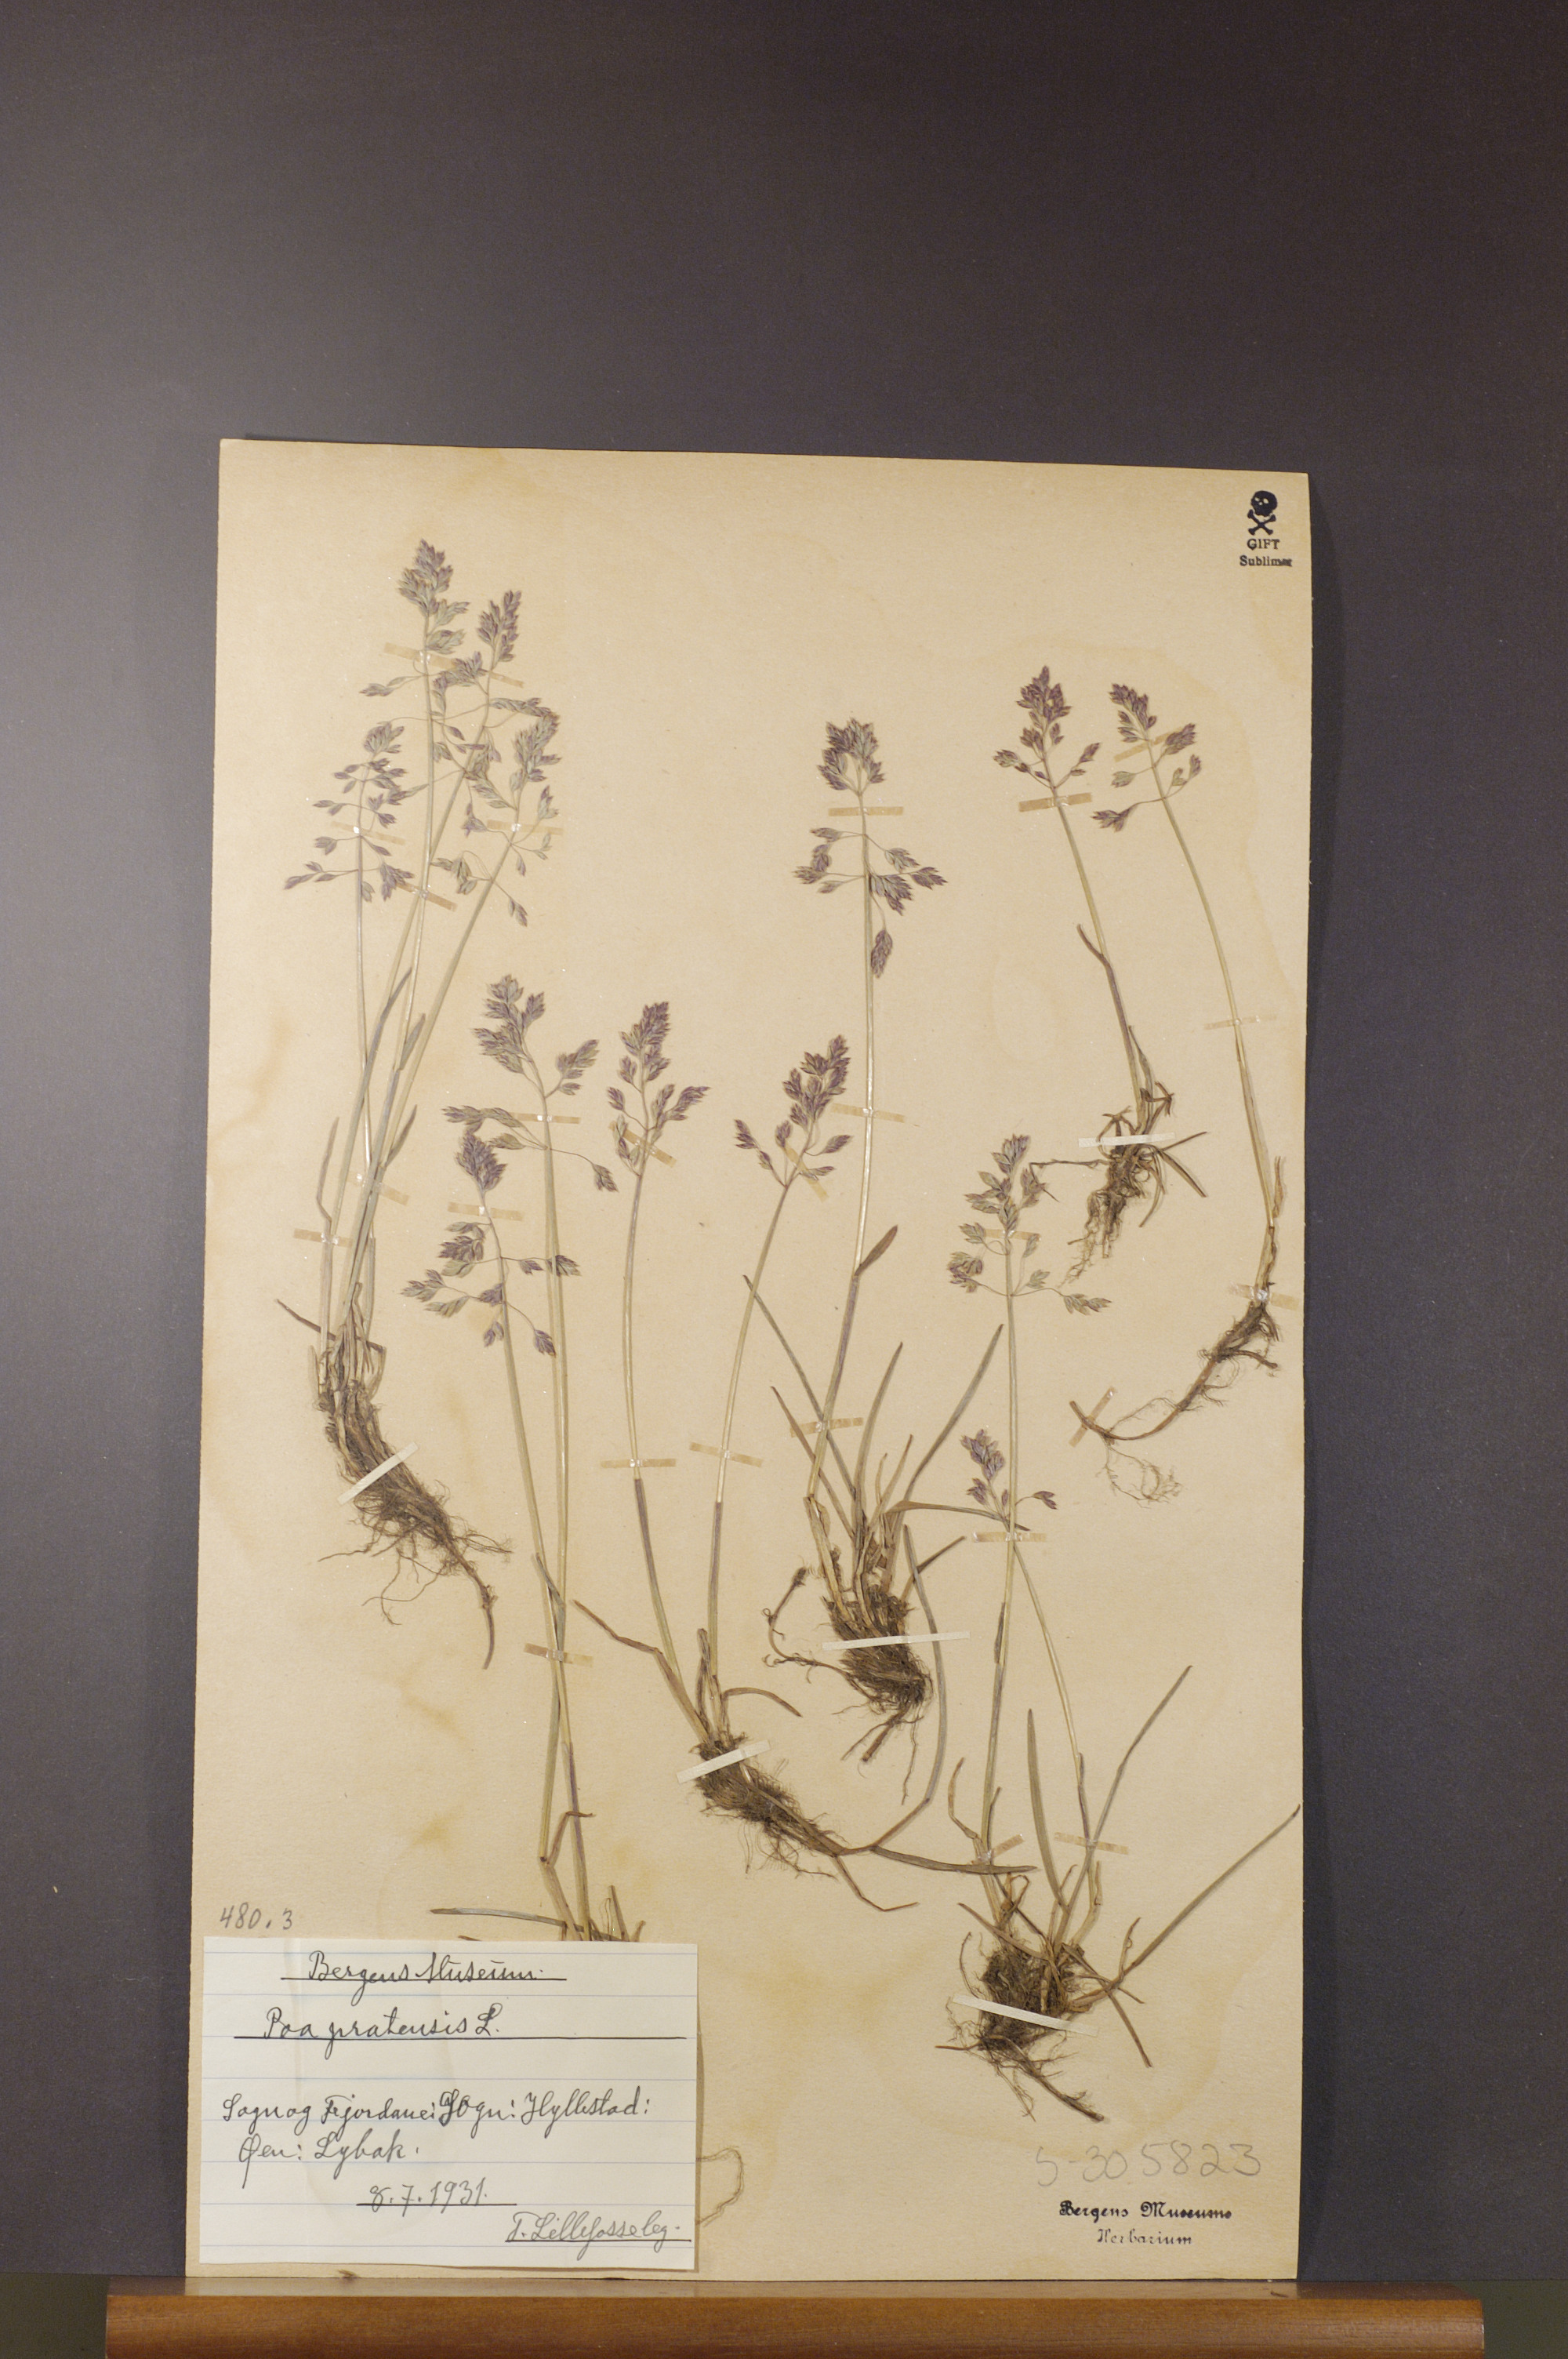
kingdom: Plantae
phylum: Tracheophyta
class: Liliopsida
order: Poales
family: Poaceae
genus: Poa
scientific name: Poa pratensis
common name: Kentucky bluegrass
